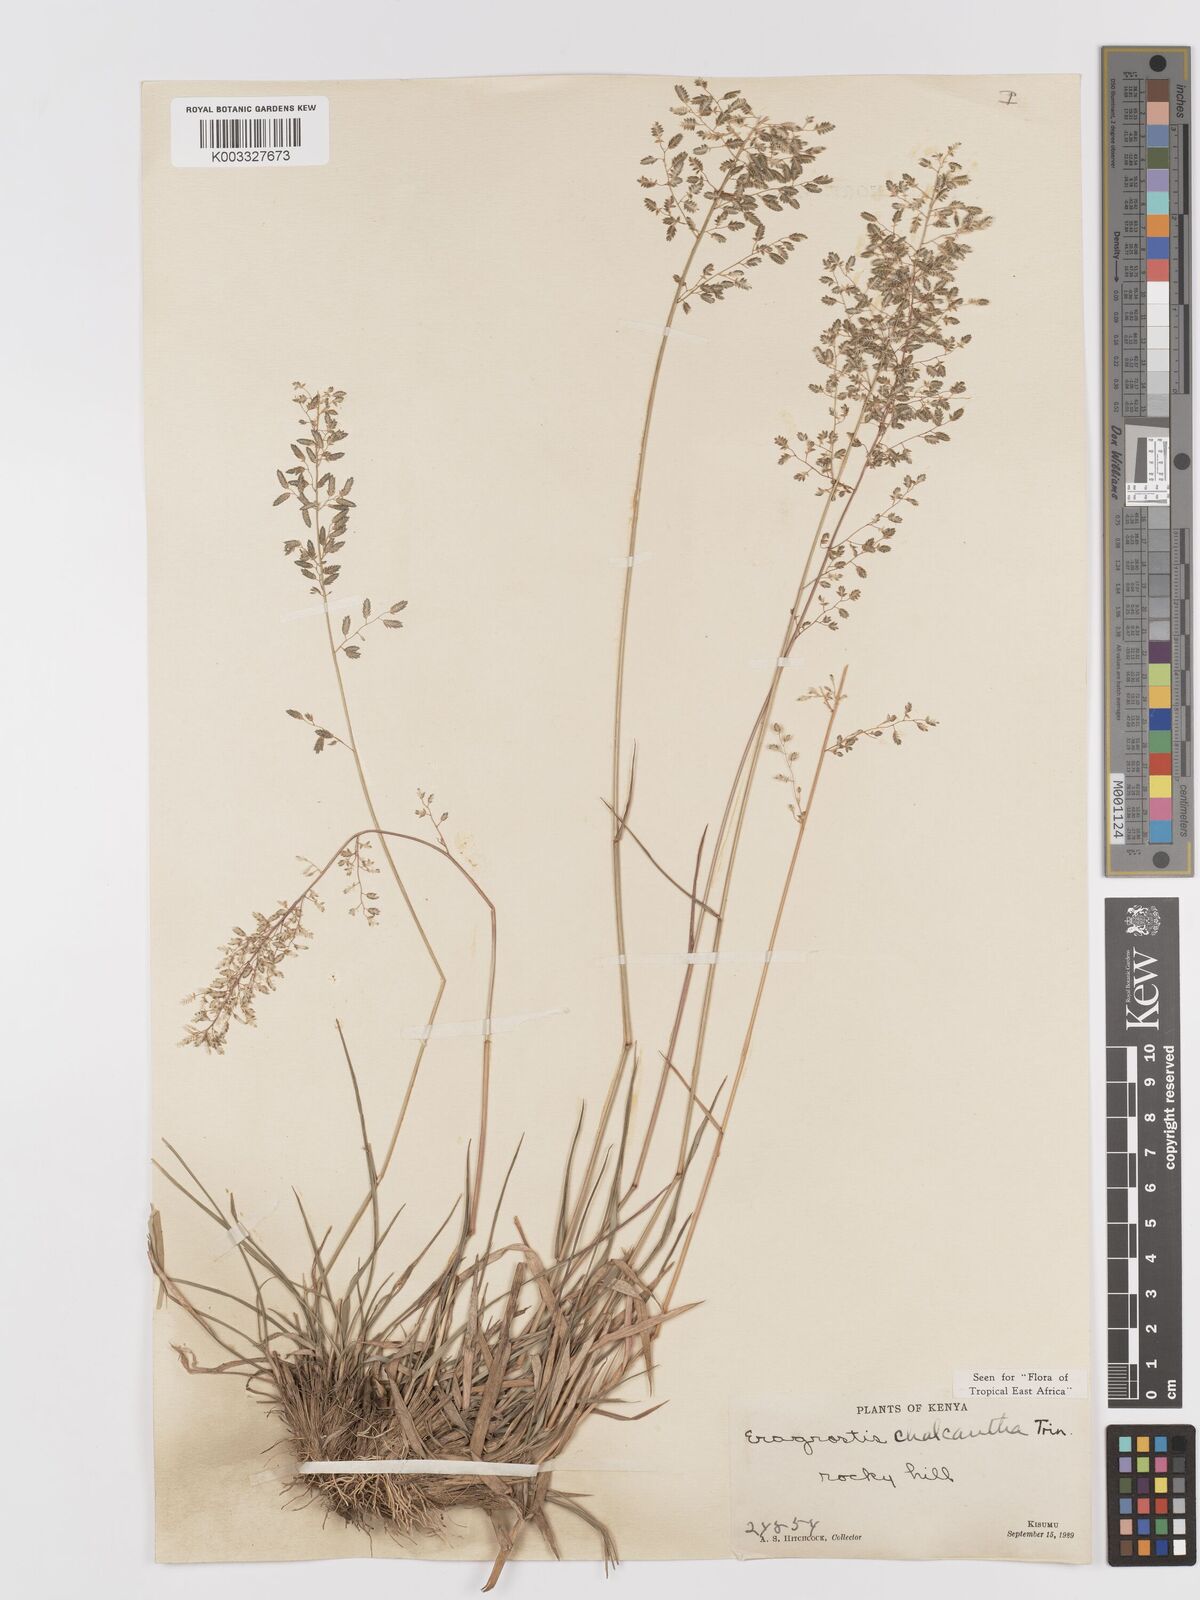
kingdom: Plantae
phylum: Tracheophyta
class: Liliopsida
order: Poales
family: Poaceae
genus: Eragrostis
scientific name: Eragrostis racemosa
